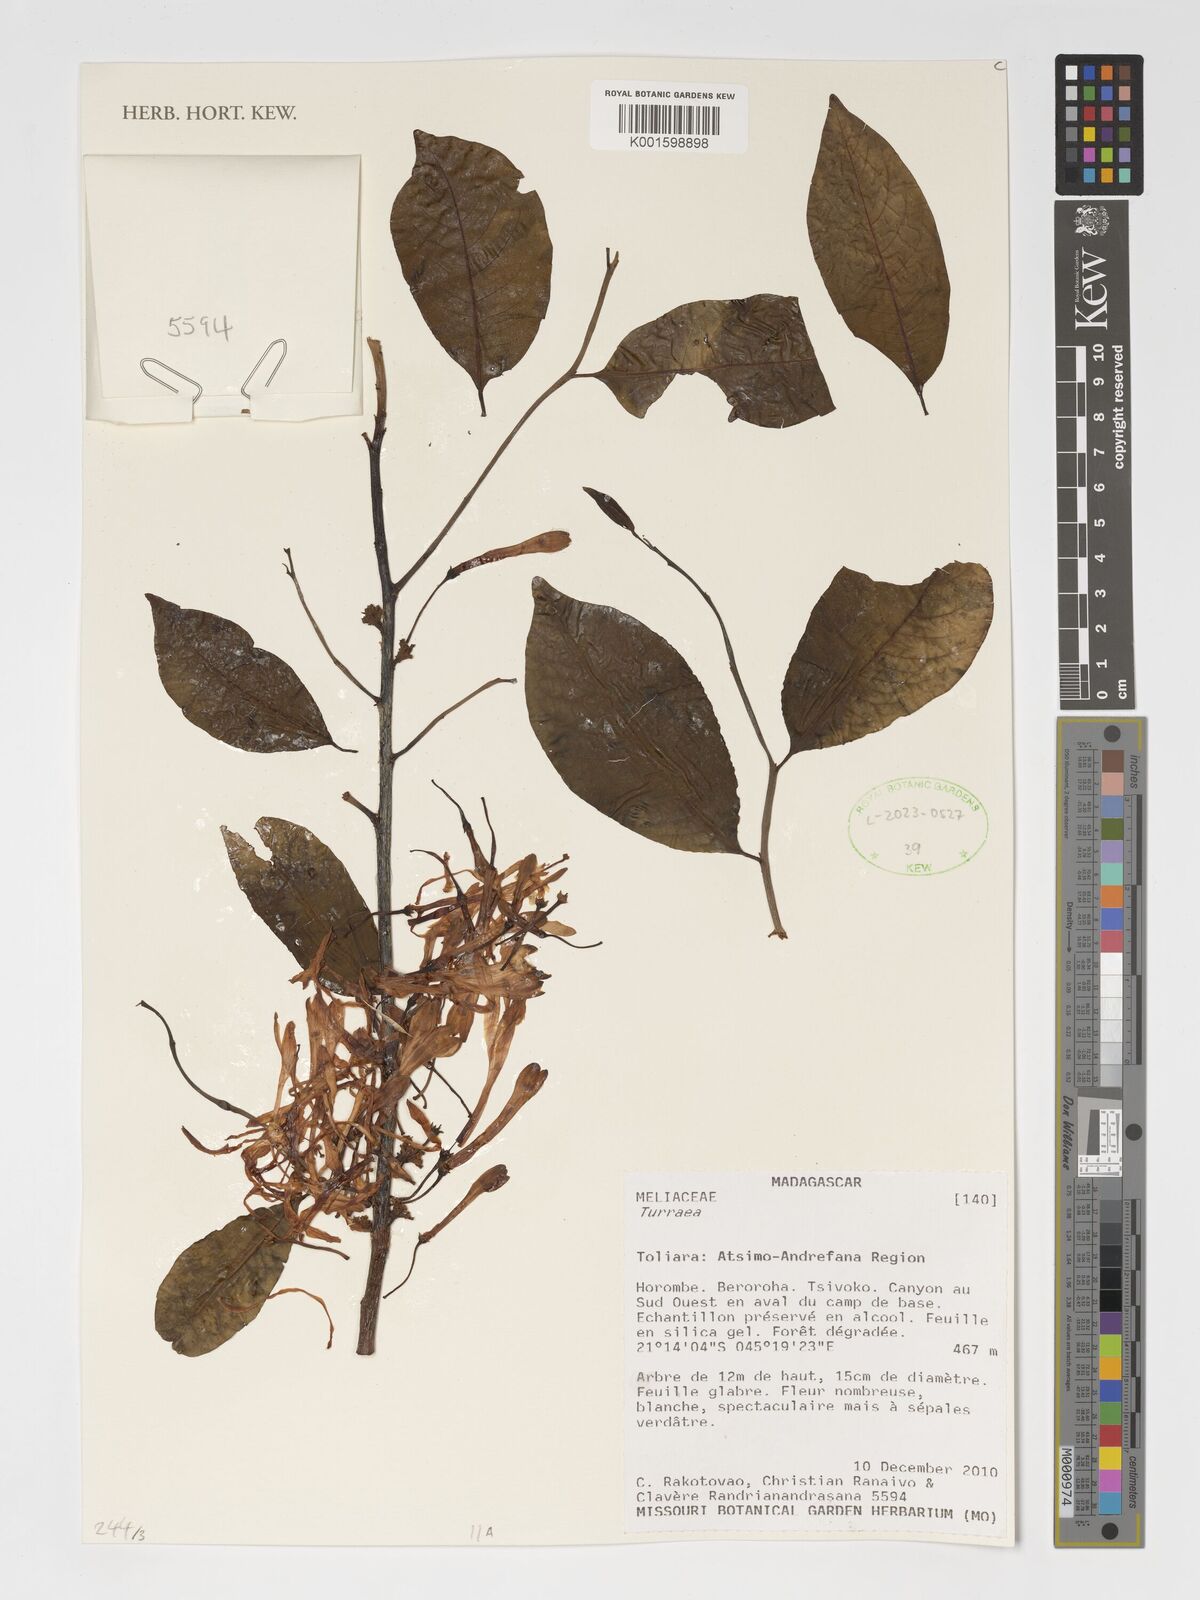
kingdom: Plantae
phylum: Tracheophyta
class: Magnoliopsida
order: Sapindales
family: Meliaceae
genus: Turraea
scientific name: Turraea
